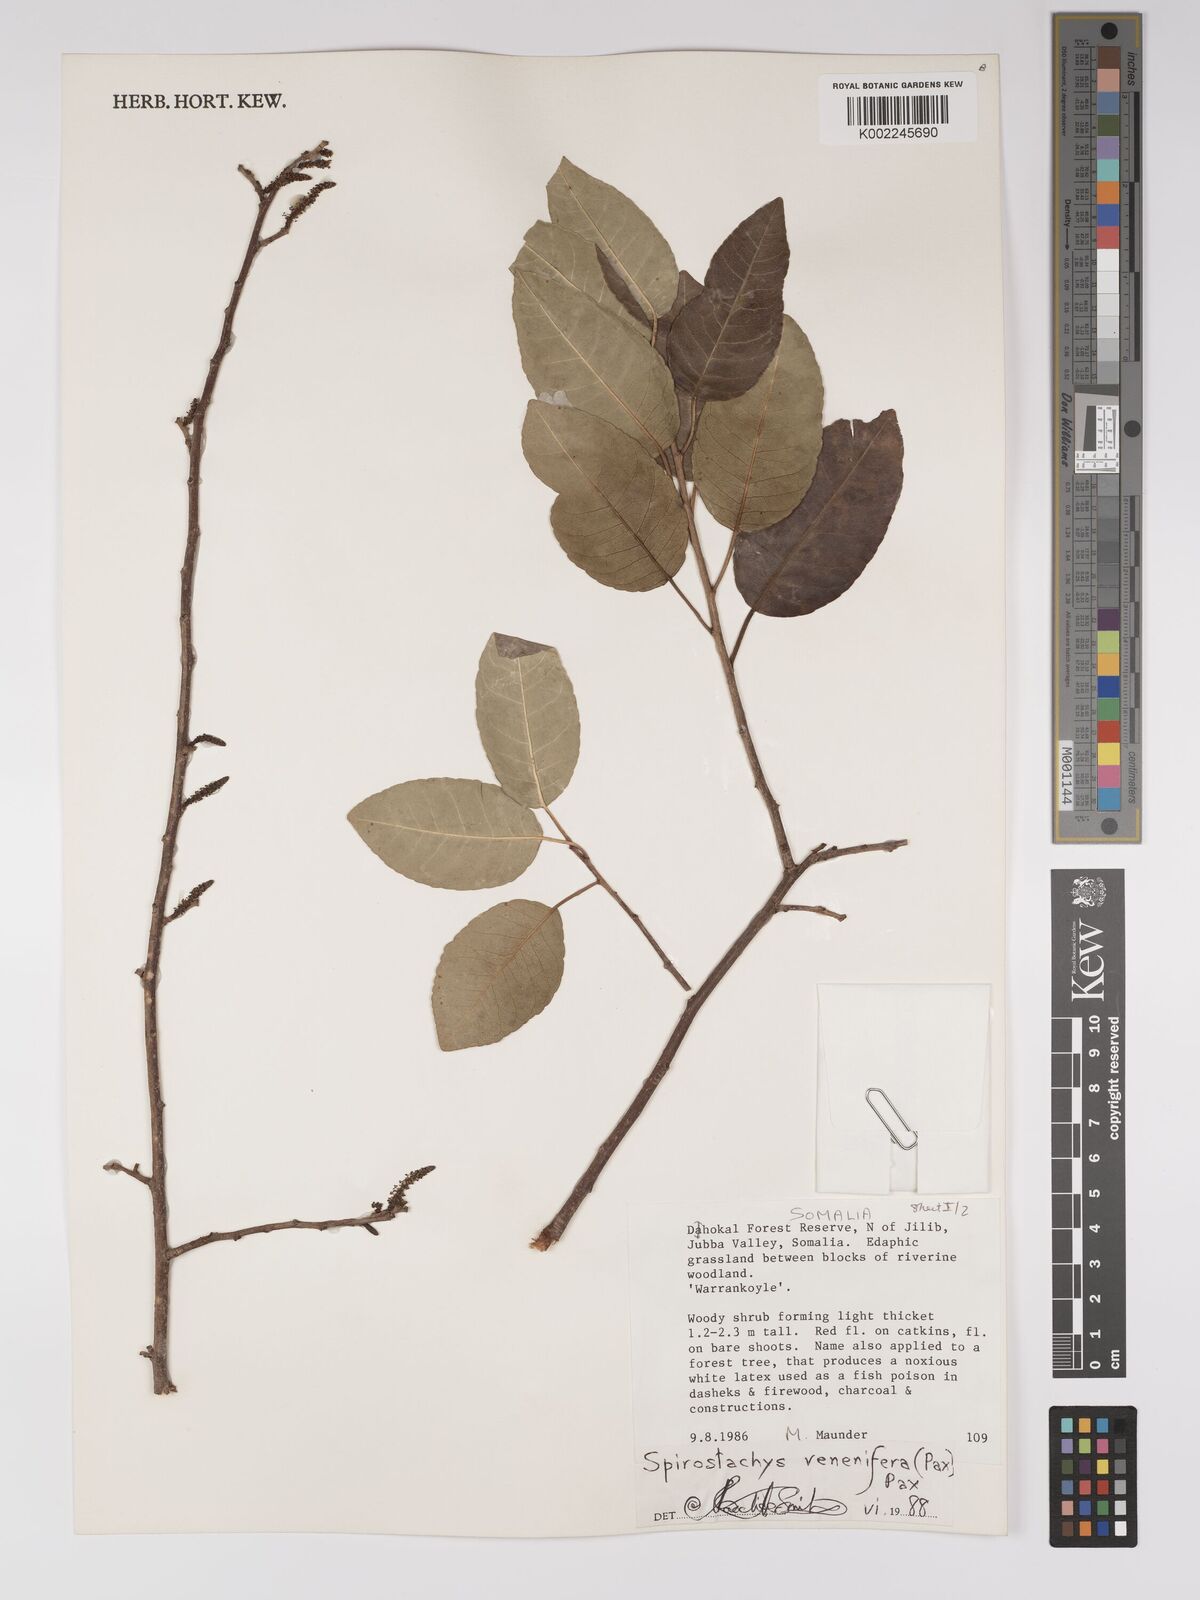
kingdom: Plantae
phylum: Tracheophyta
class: Magnoliopsida
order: Malpighiales
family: Euphorbiaceae
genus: Spirostachys
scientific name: Spirostachys venenifera
